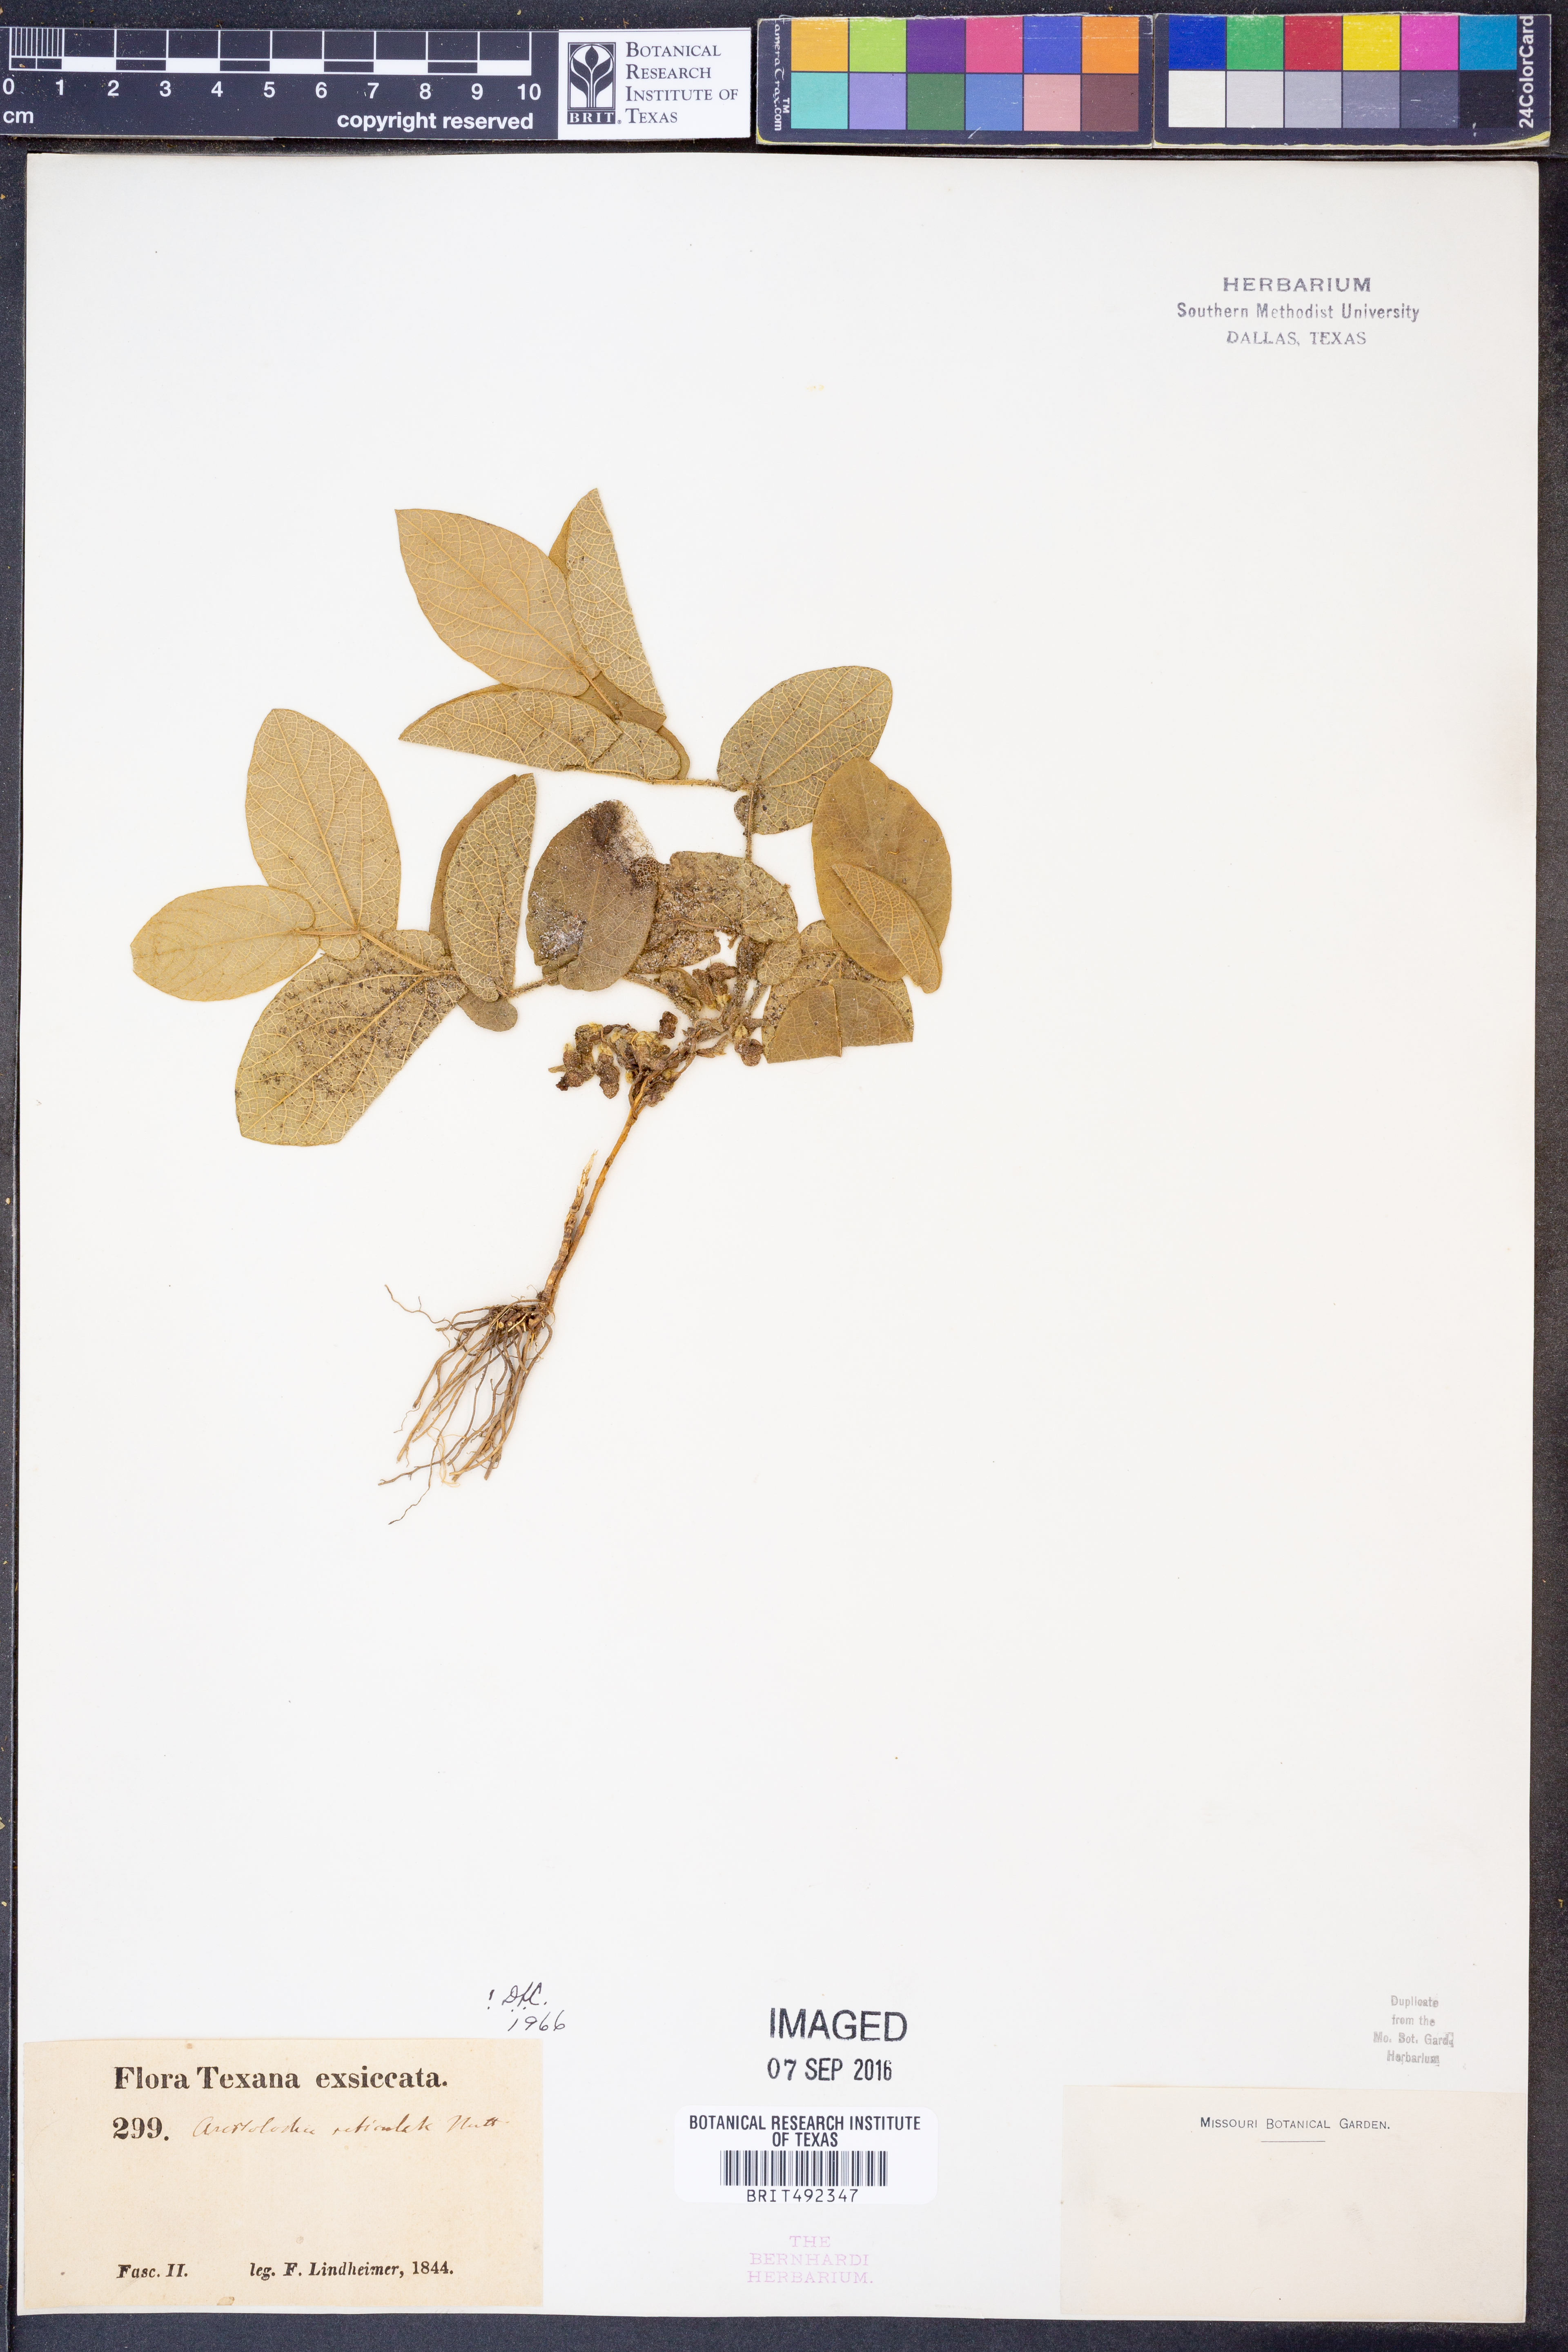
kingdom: Plantae
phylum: Tracheophyta
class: Magnoliopsida
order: Piperales
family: Aristolochiaceae
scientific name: Aristolochiaceae
